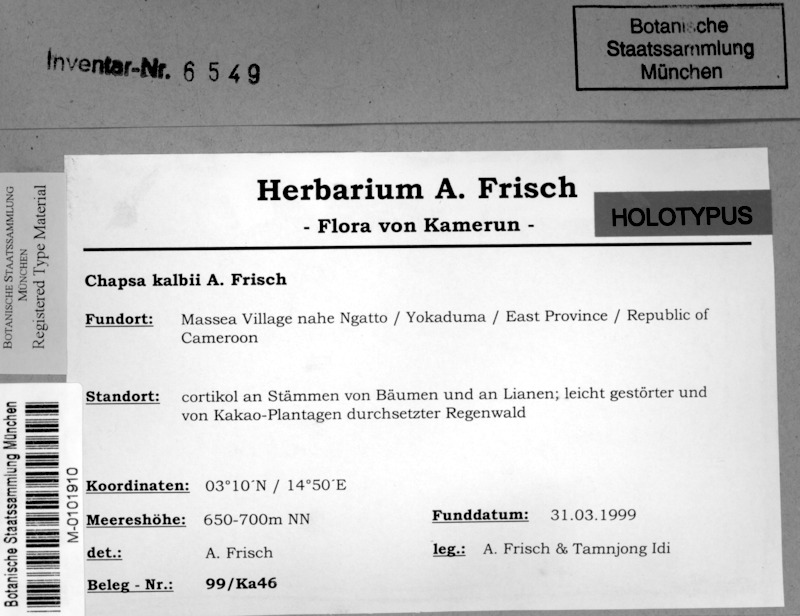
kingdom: Fungi
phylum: Ascomycota
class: Lecanoromycetes
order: Ostropales
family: Graphidaceae
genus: Pseudochapsa
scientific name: Pseudochapsa kalbii
